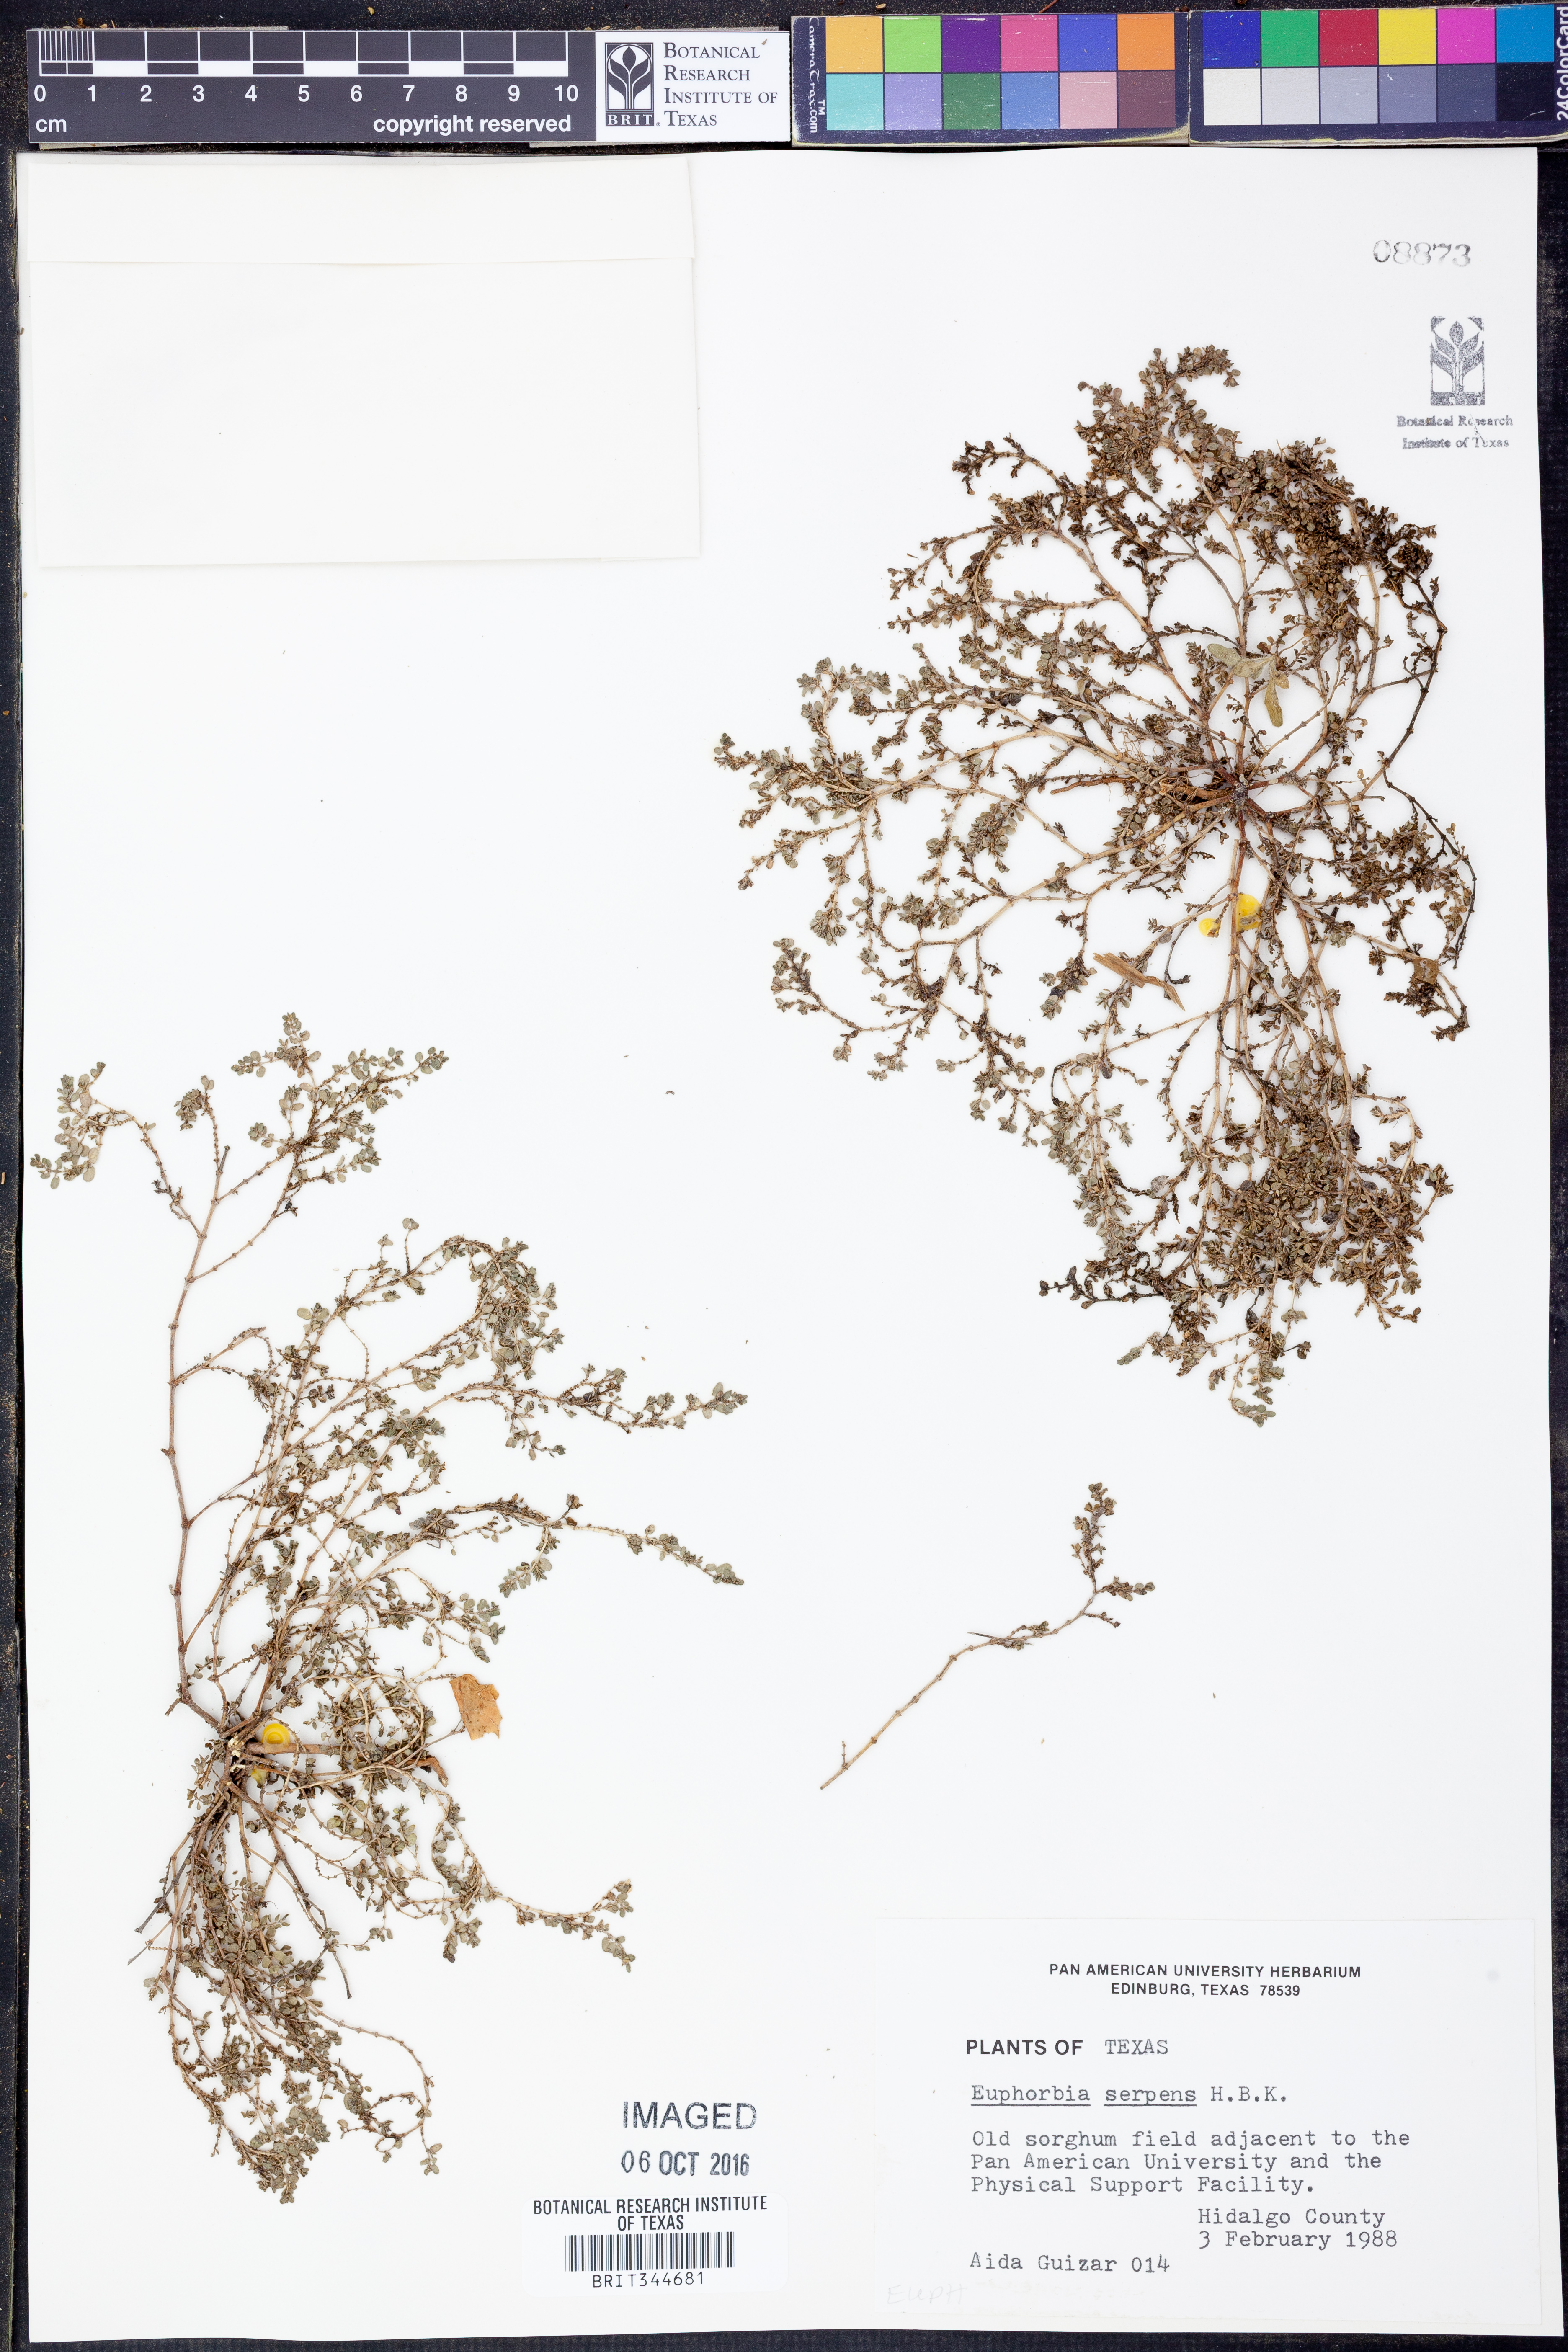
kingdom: Plantae
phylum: Tracheophyta
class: Magnoliopsida
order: Malpighiales
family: Euphorbiaceae
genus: Euphorbia
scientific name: Euphorbia serpens
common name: Matted sandmat
